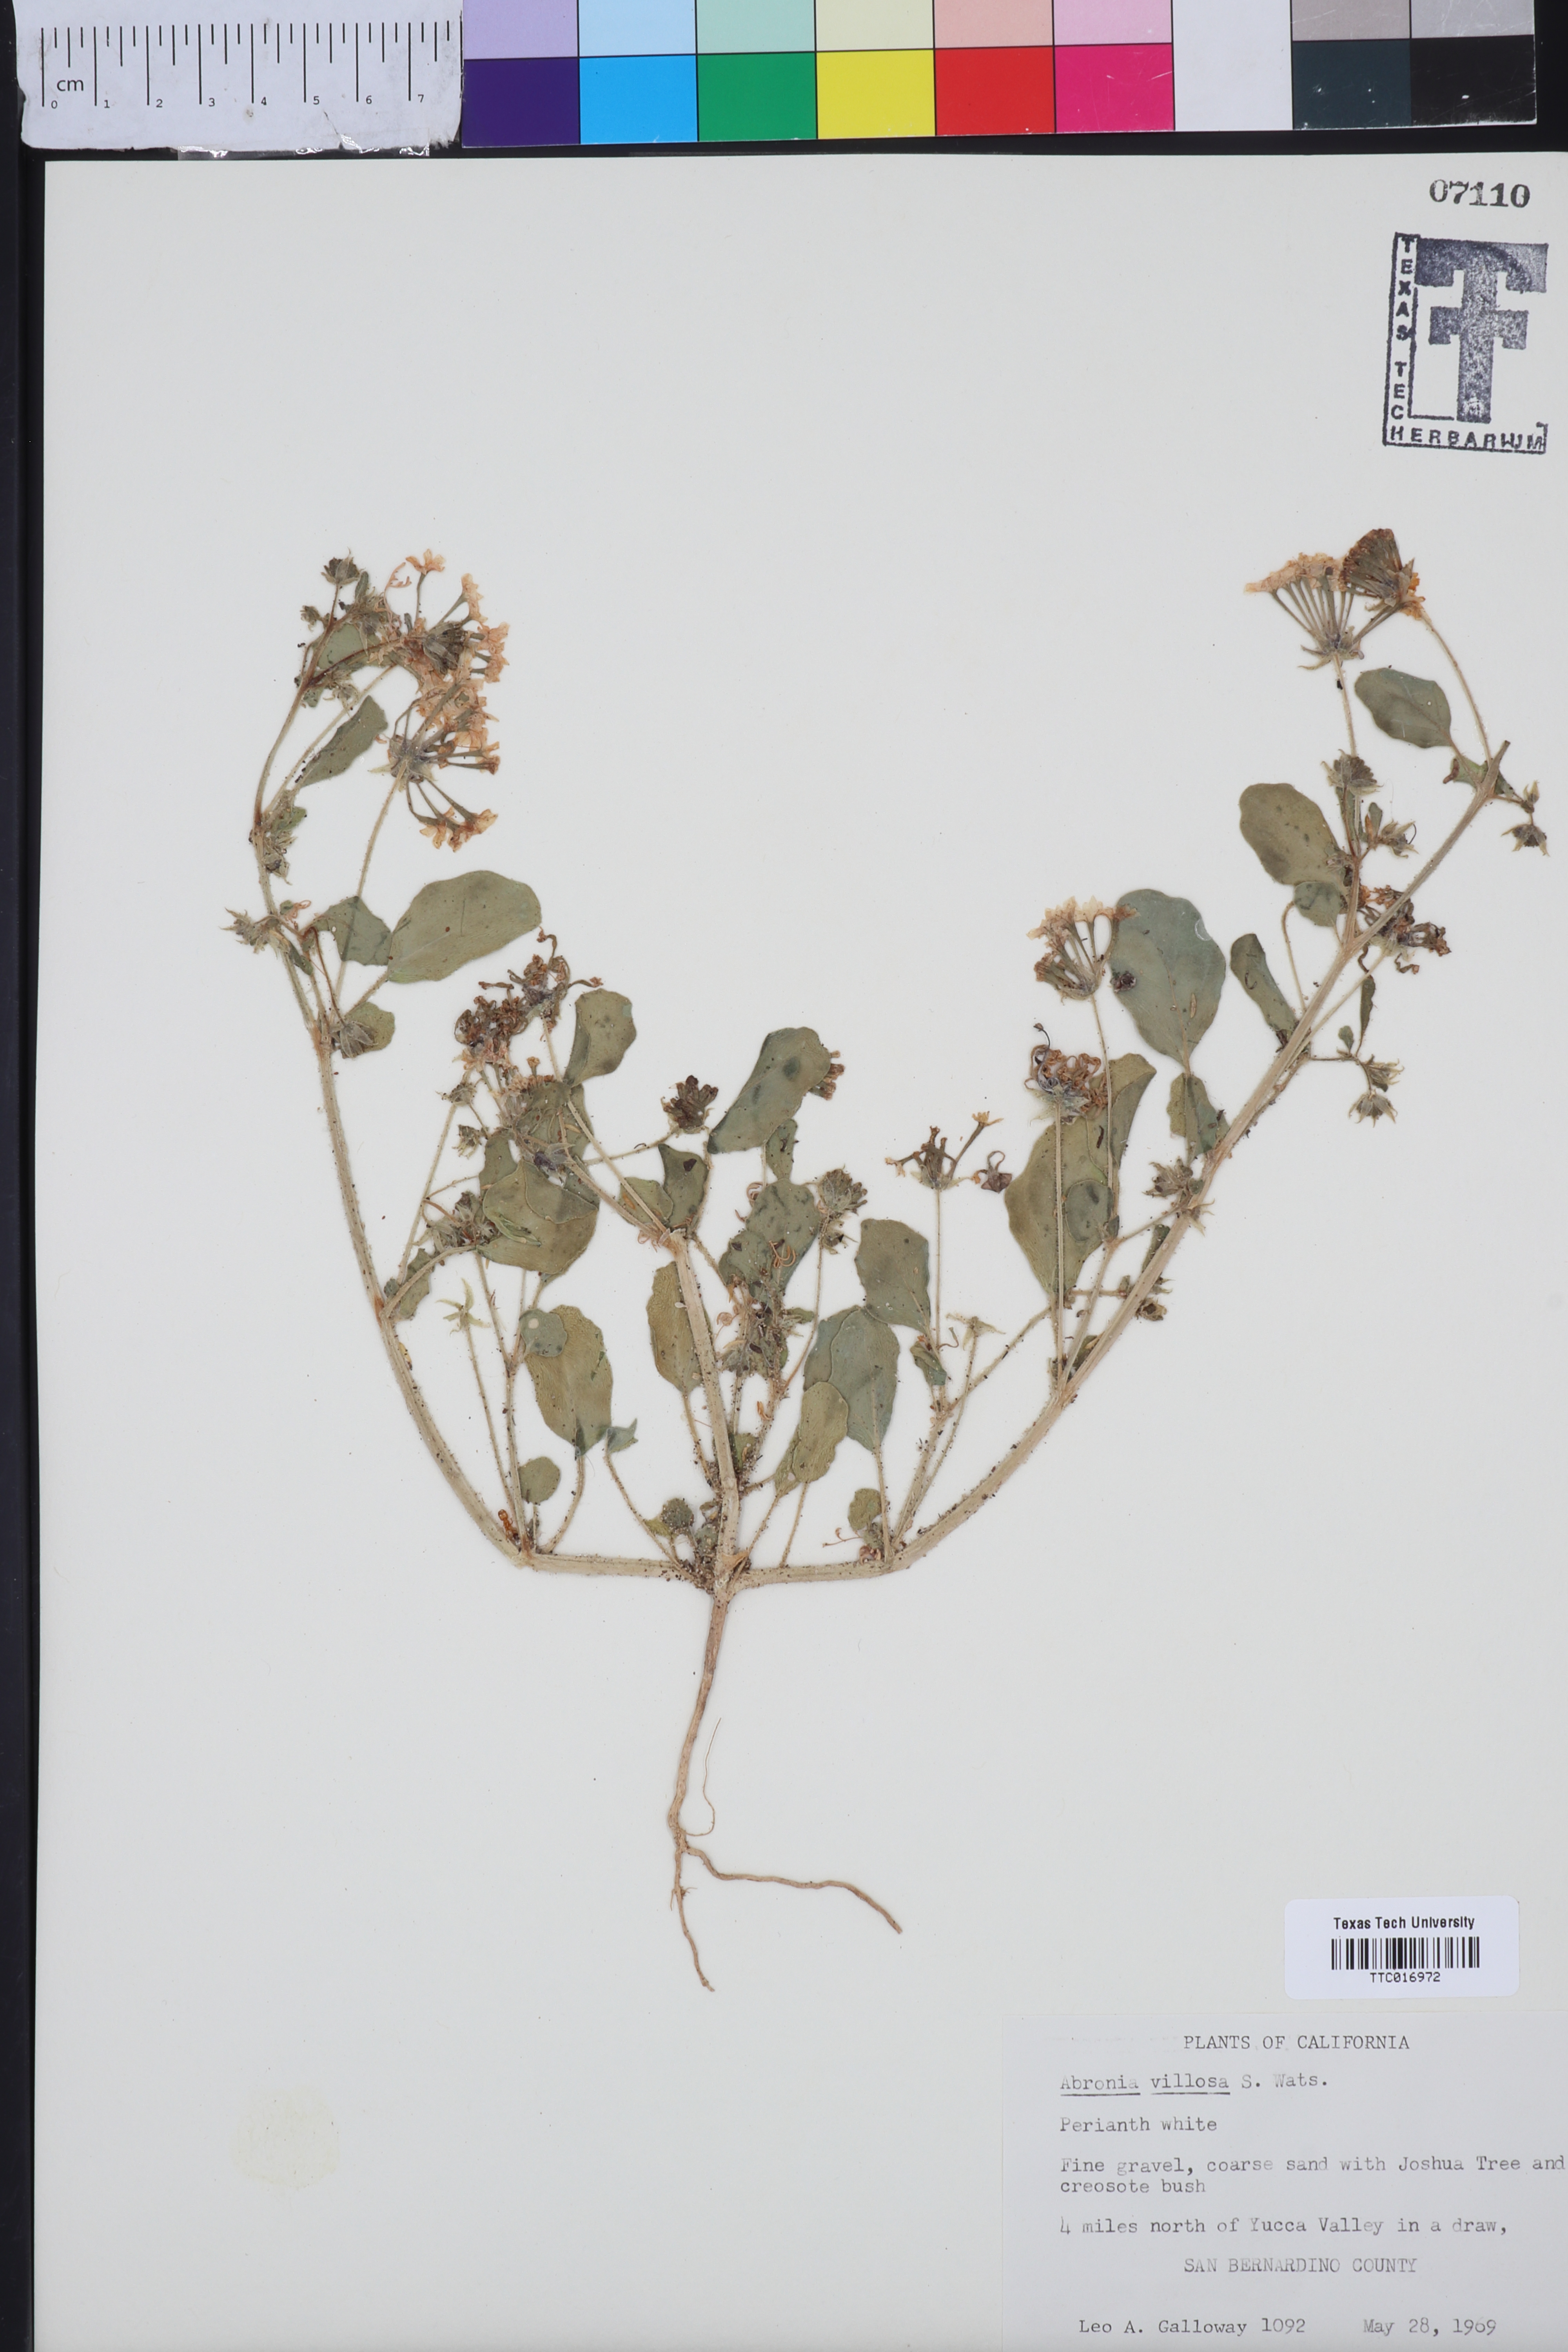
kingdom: Plantae
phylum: Tracheophyta
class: Magnoliopsida
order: Caryophyllales
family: Nyctaginaceae
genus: Abronia
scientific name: Abronia villosa
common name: Desert sand-verbena
